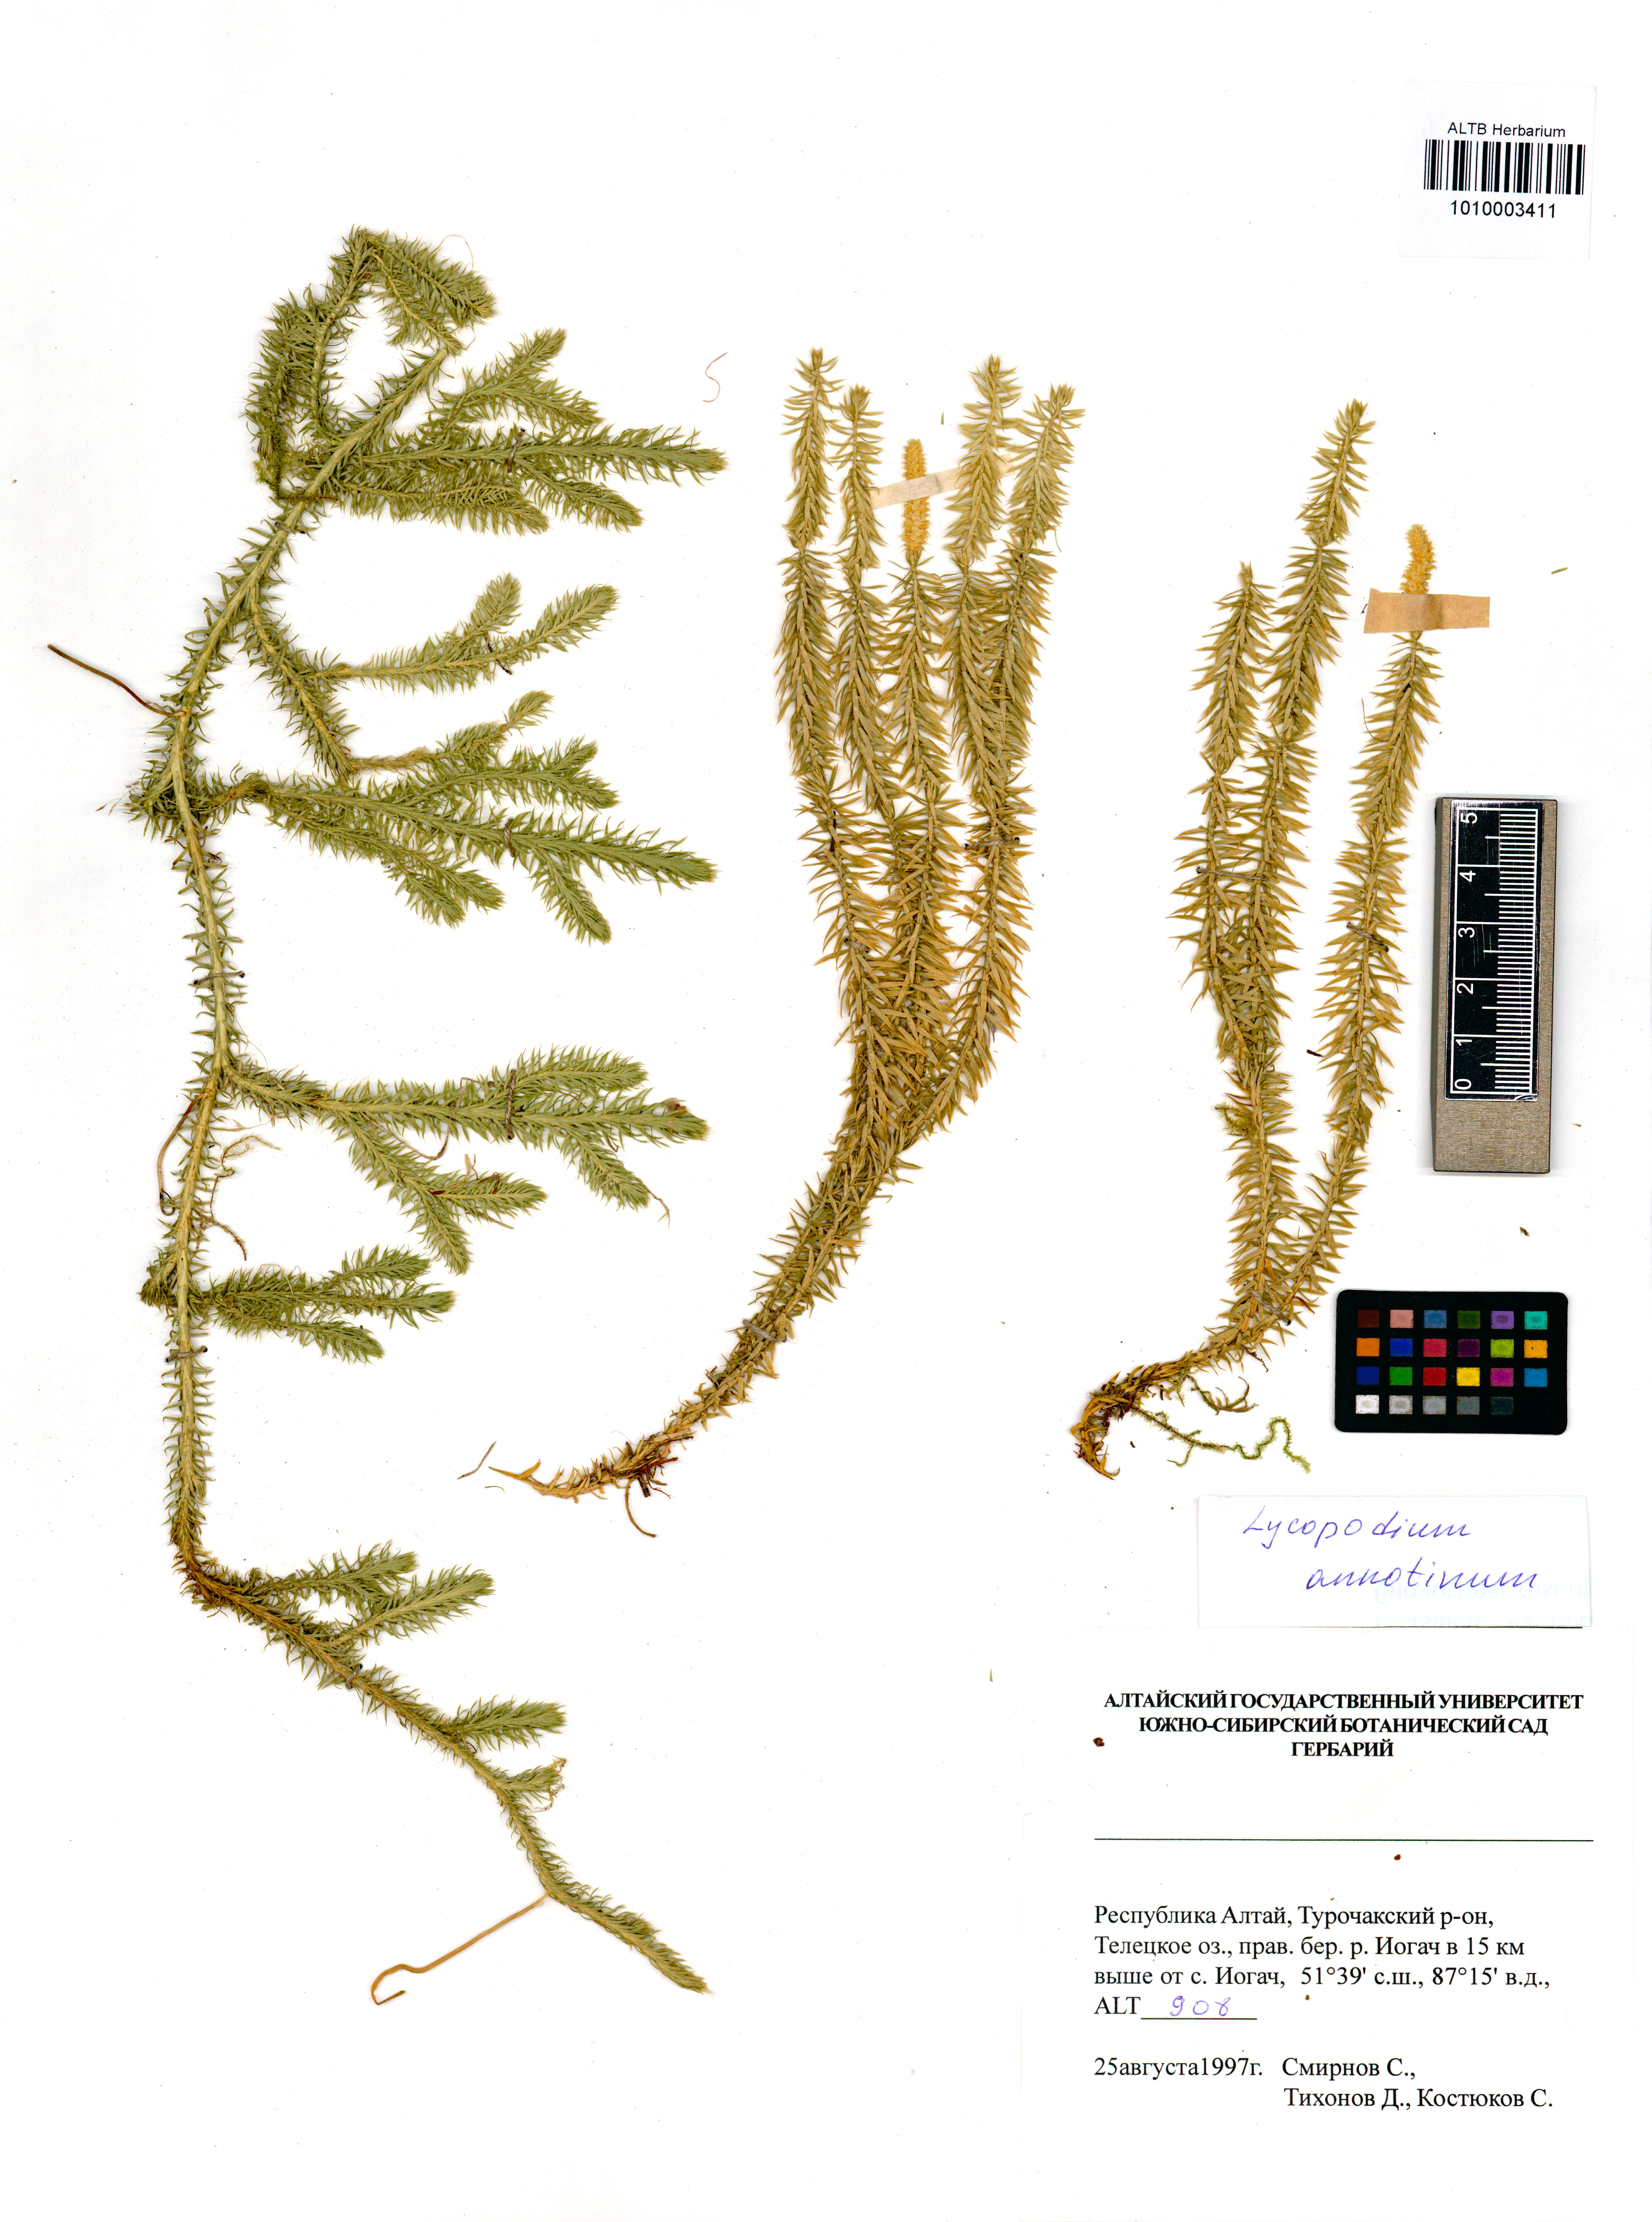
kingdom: Plantae
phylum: Tracheophyta
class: Lycopodiopsida
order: Lycopodiales
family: Lycopodiaceae
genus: Spinulum
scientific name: Spinulum annotinum
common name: Interrupted club-moss
